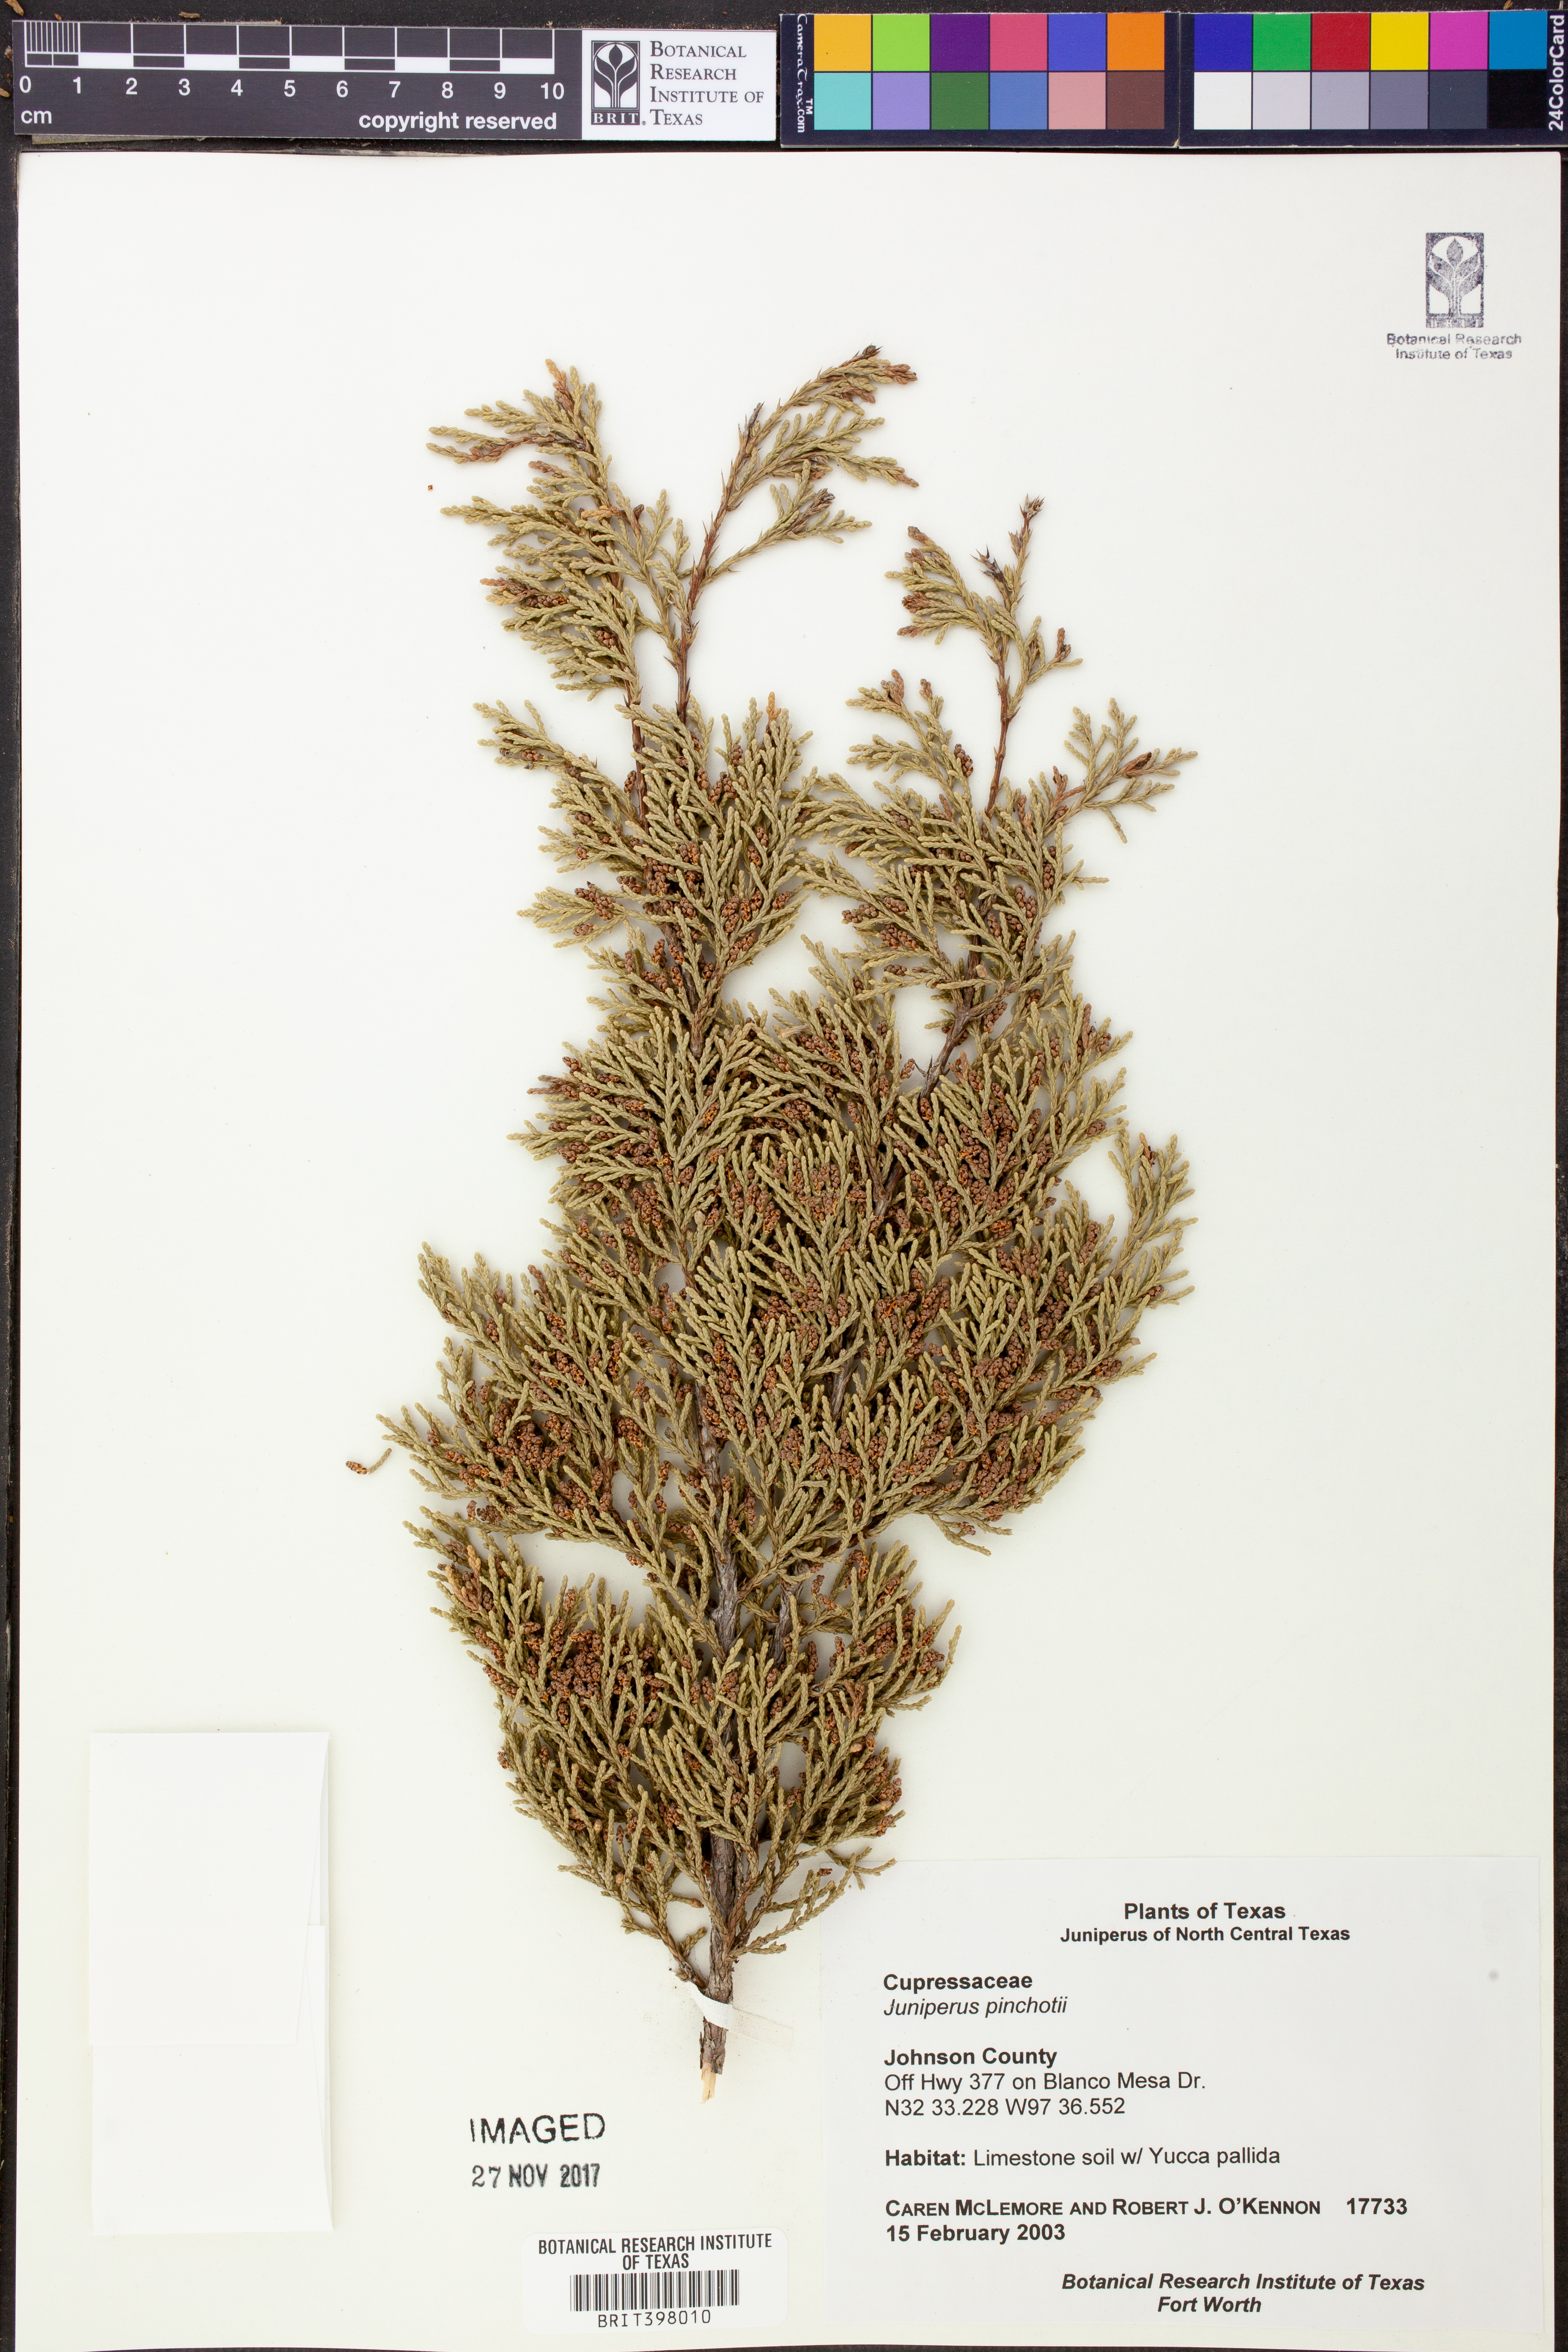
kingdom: Plantae
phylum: Tracheophyta
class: Pinopsida
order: Pinales
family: Cupressaceae
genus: Juniperus
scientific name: Juniperus pinchotii
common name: Pinchot juniper
